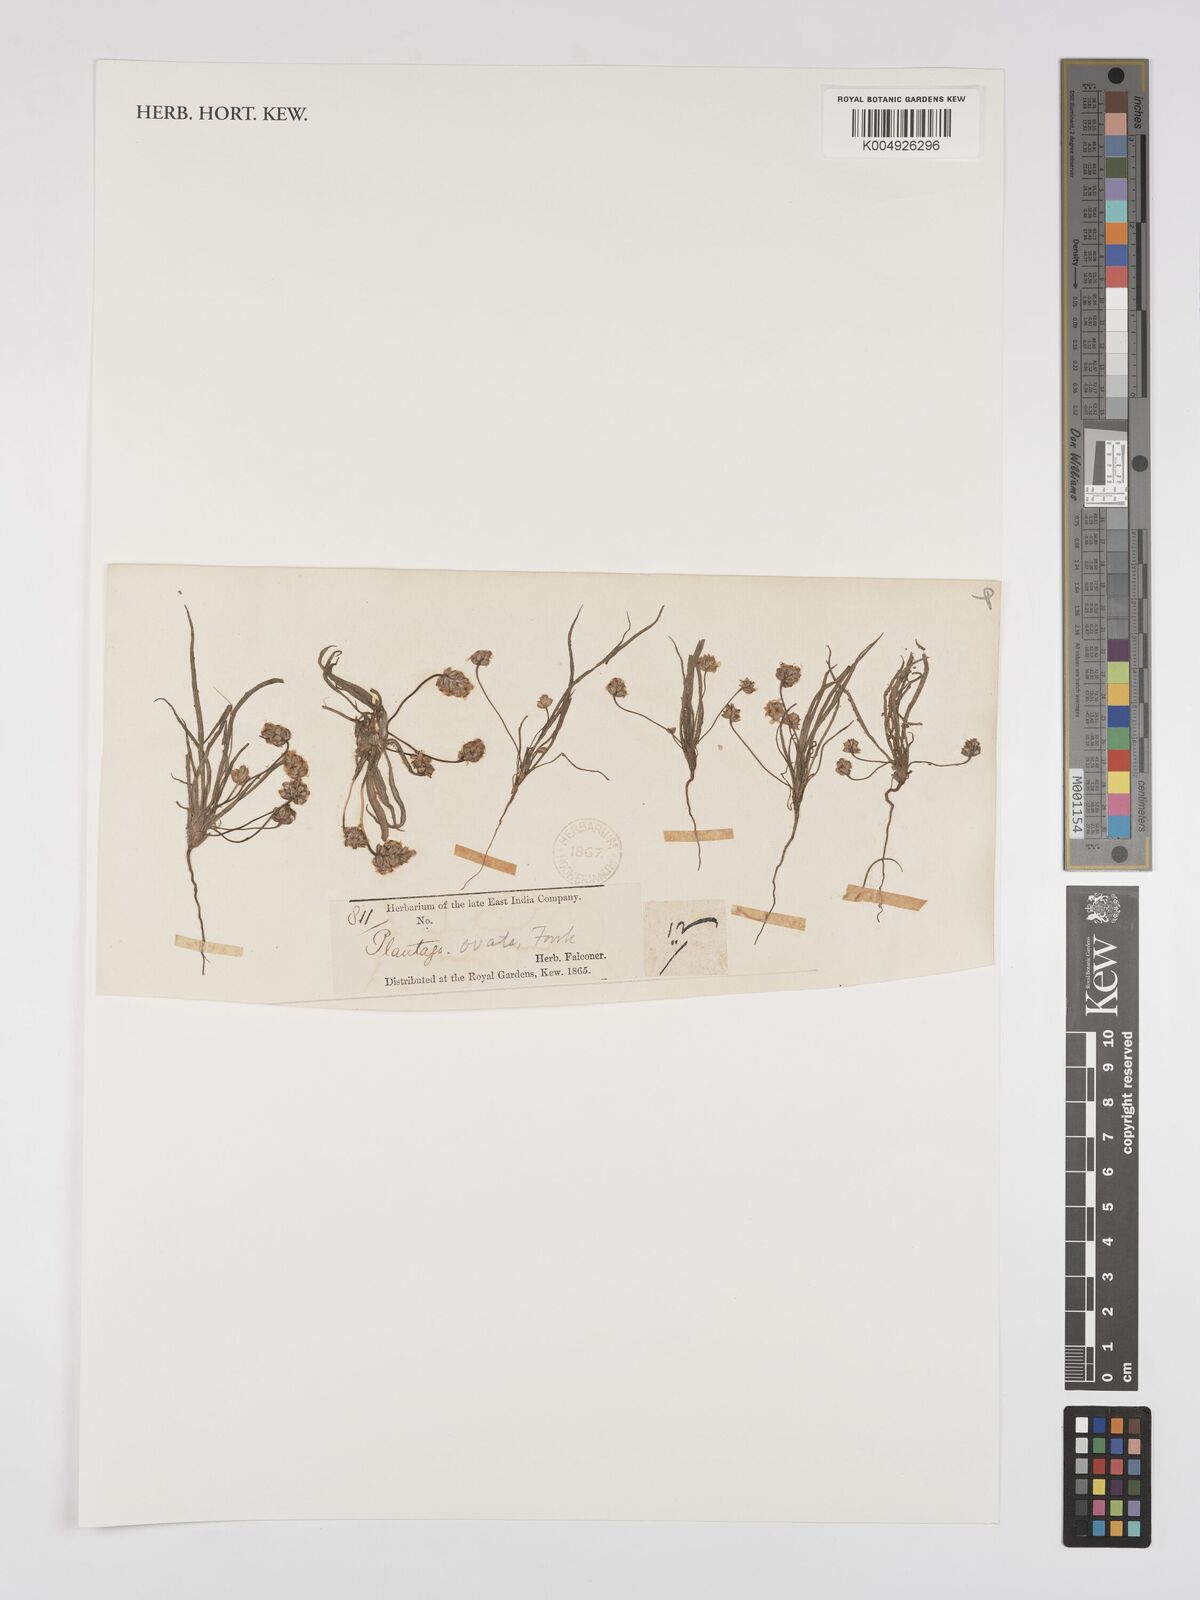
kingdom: Plantae
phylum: Tracheophyta
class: Magnoliopsida
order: Lamiales
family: Plantaginaceae
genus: Plantago
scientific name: Plantago cumingiana
